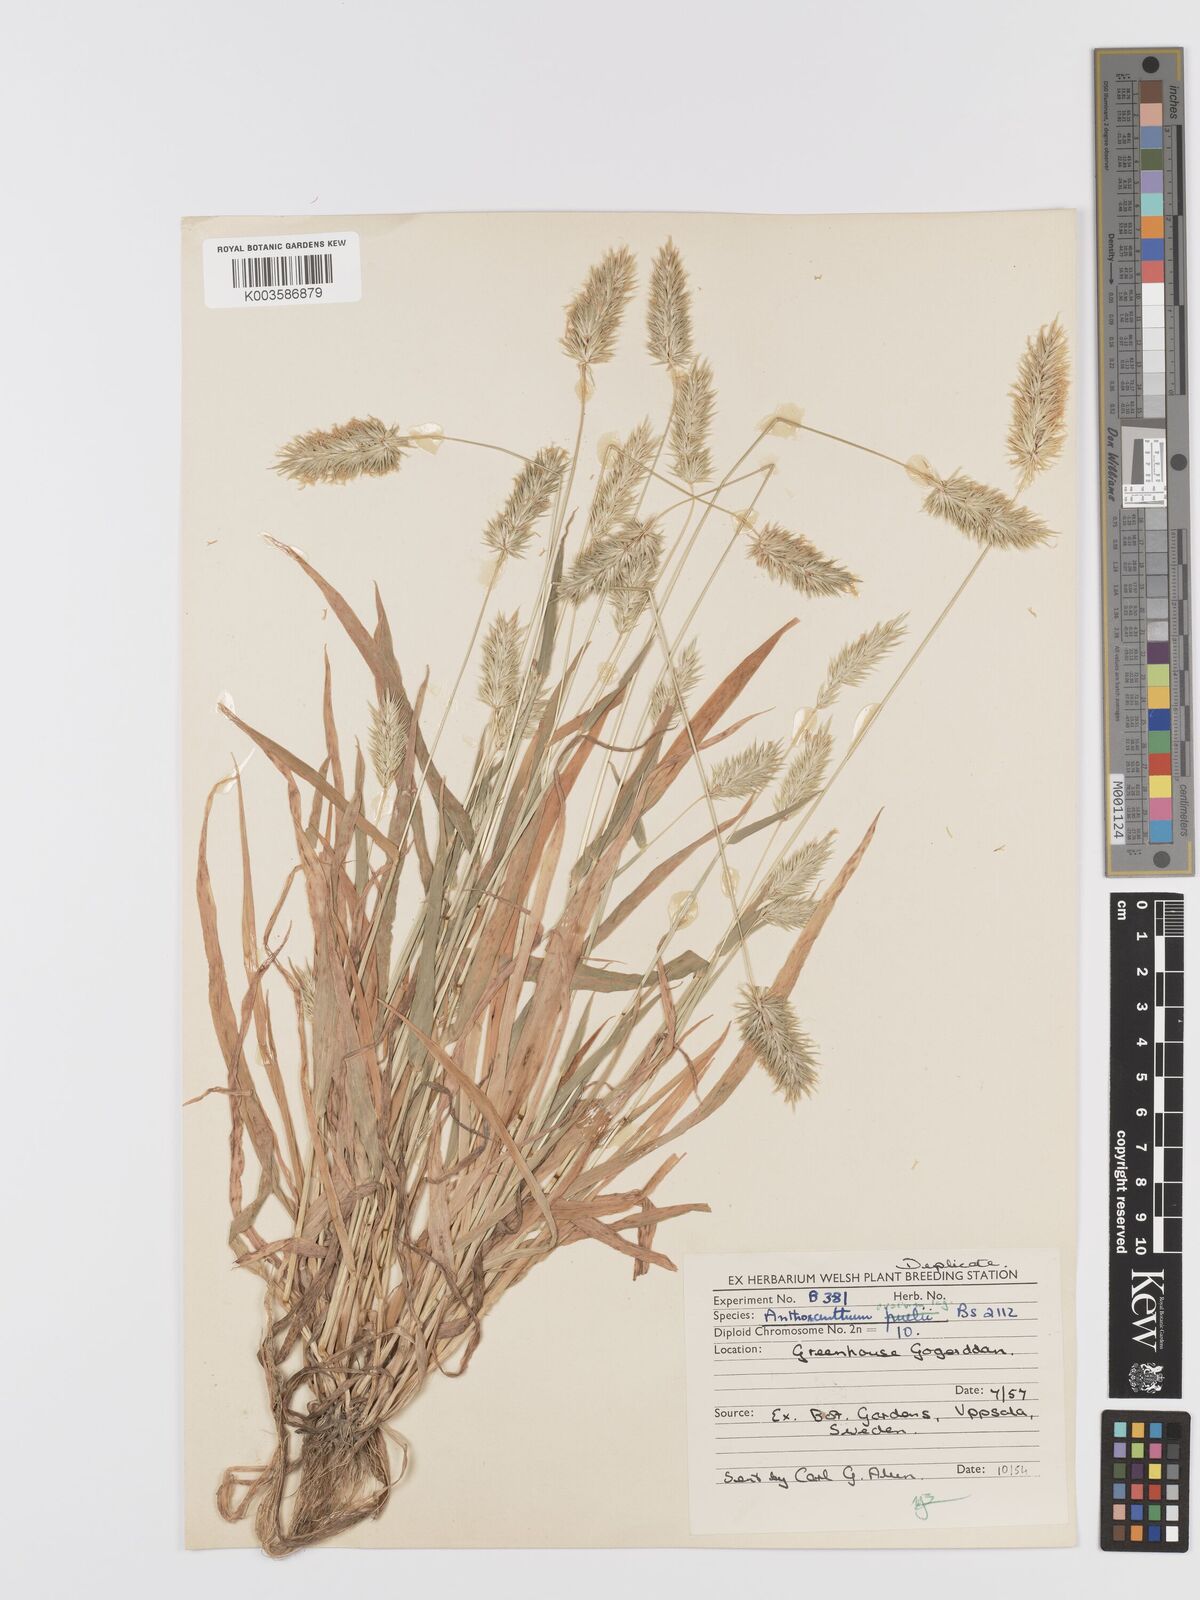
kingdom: Plantae
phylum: Tracheophyta
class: Liliopsida
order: Poales
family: Poaceae
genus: Anthoxanthum
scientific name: Anthoxanthum ovatum
